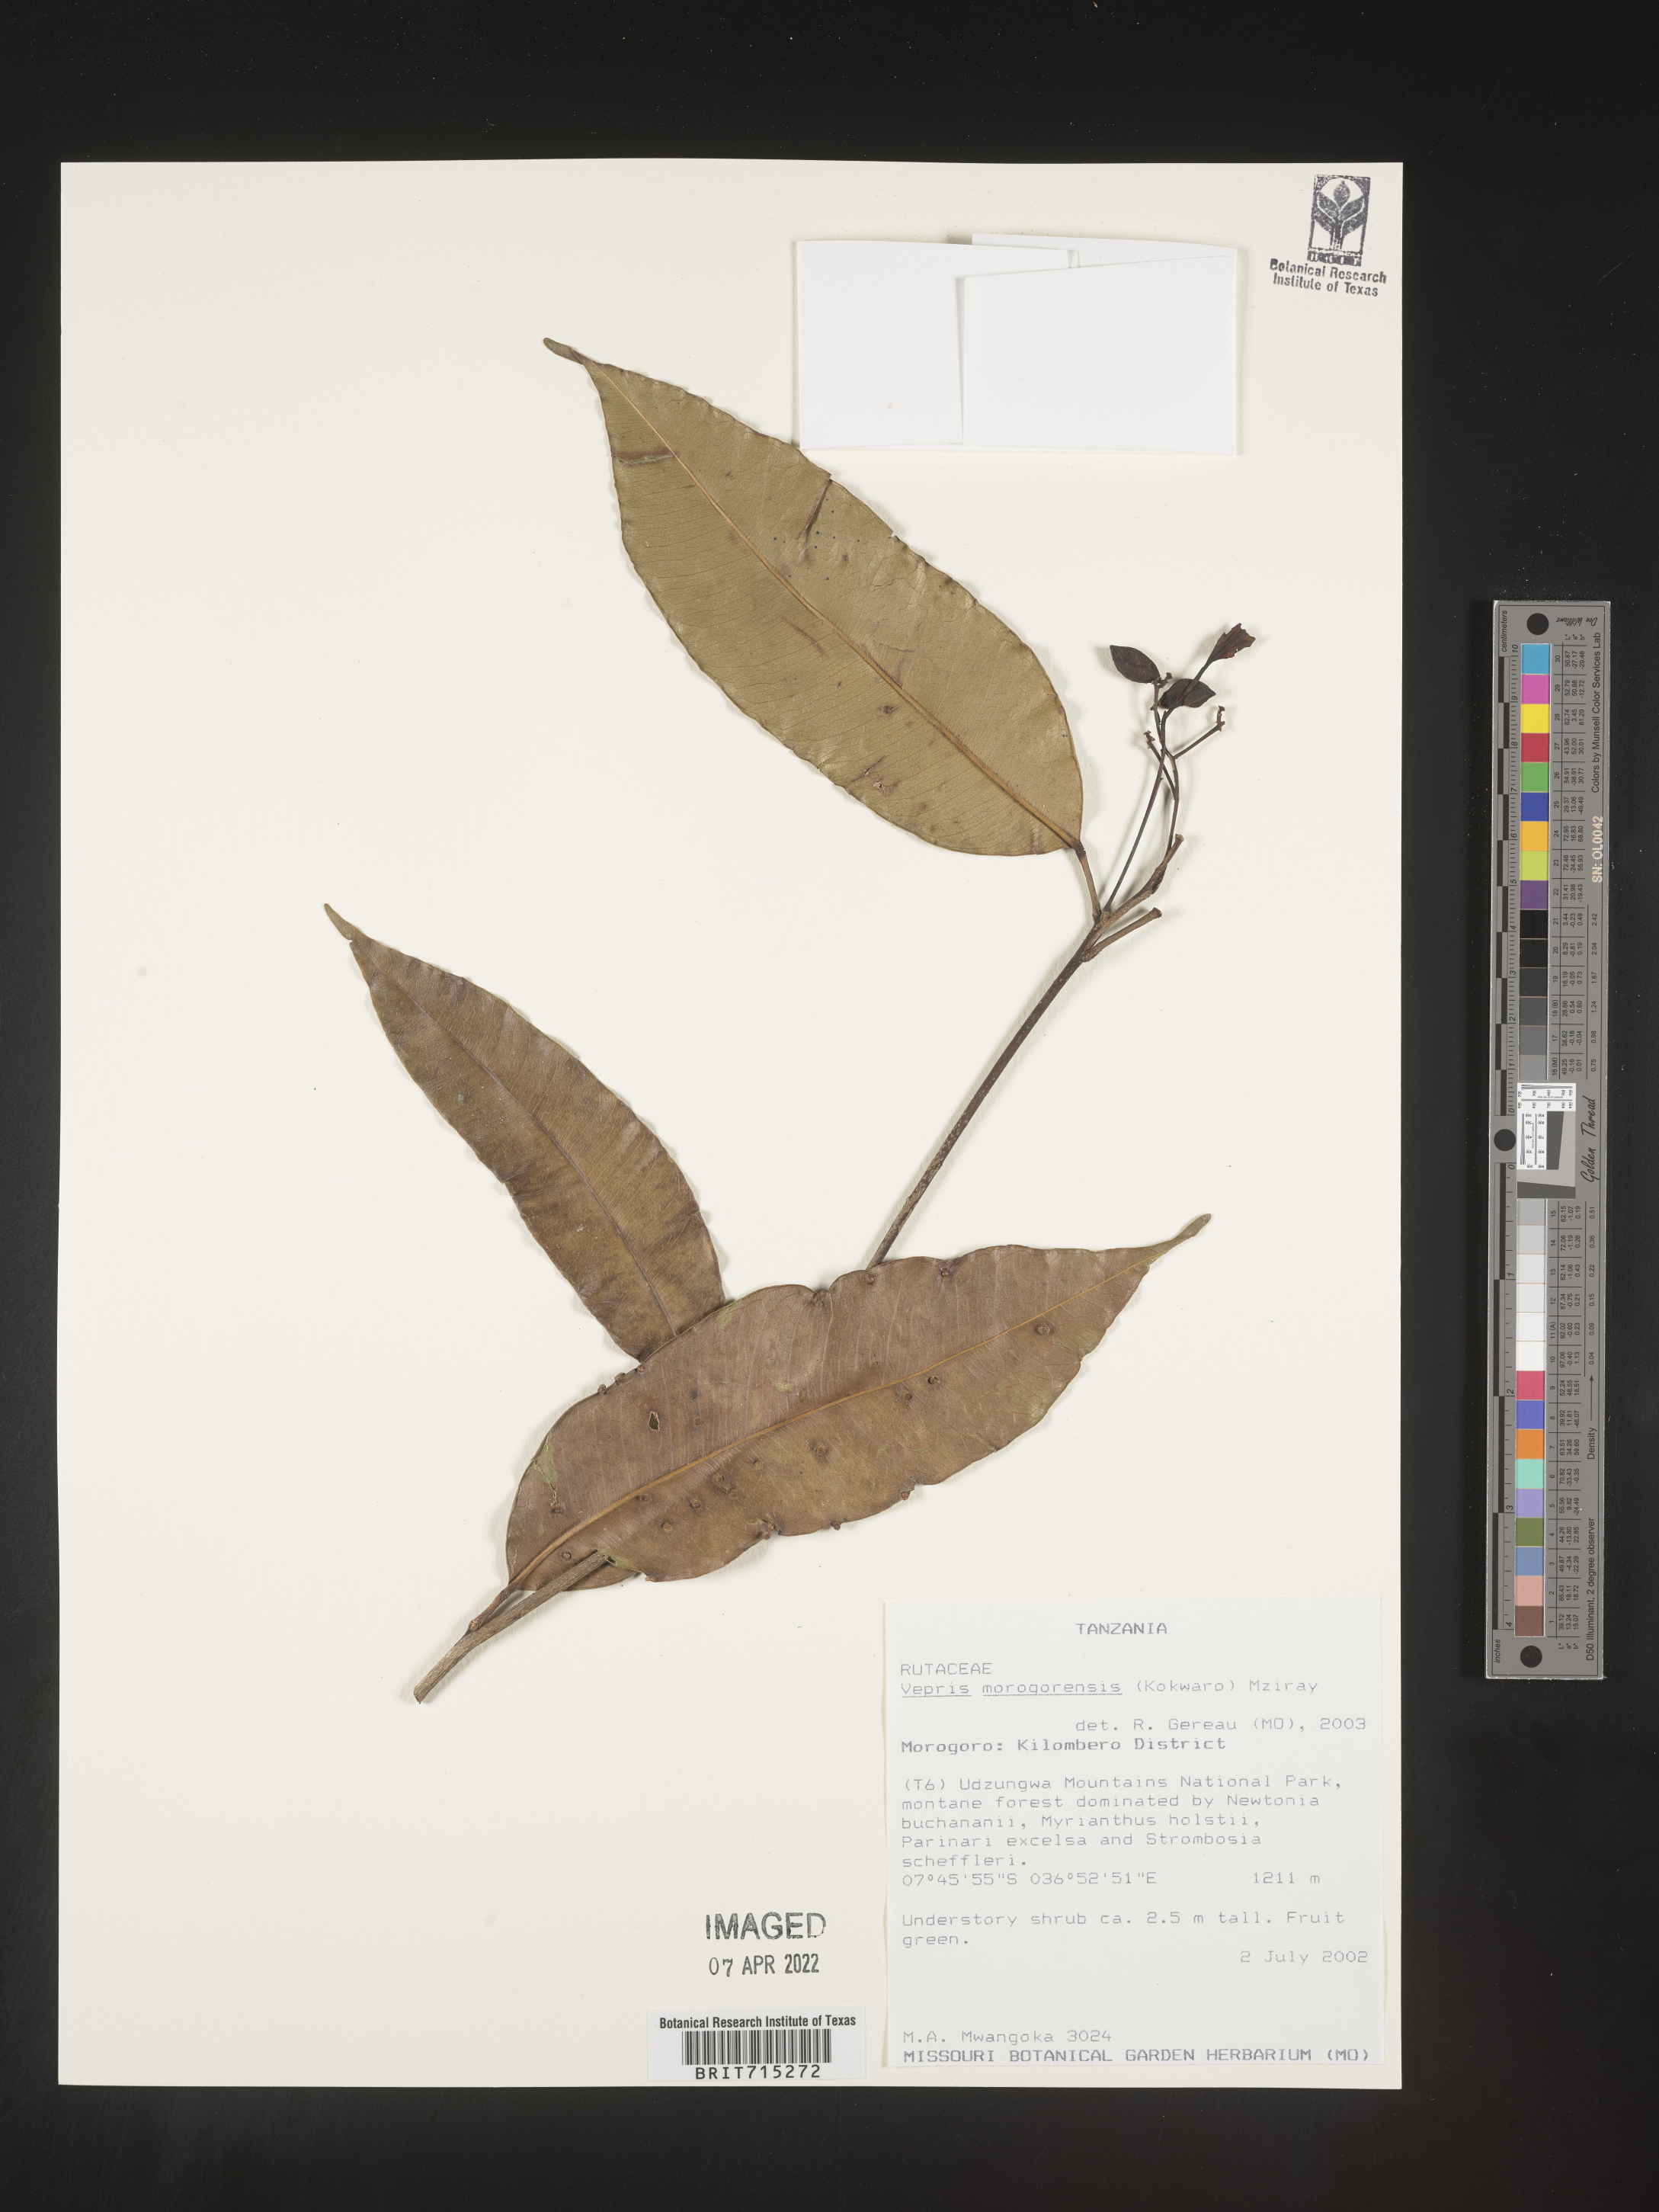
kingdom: Plantae
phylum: Tracheophyta
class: Magnoliopsida
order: Sapindales
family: Rutaceae
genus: Vepris
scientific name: Vepris
